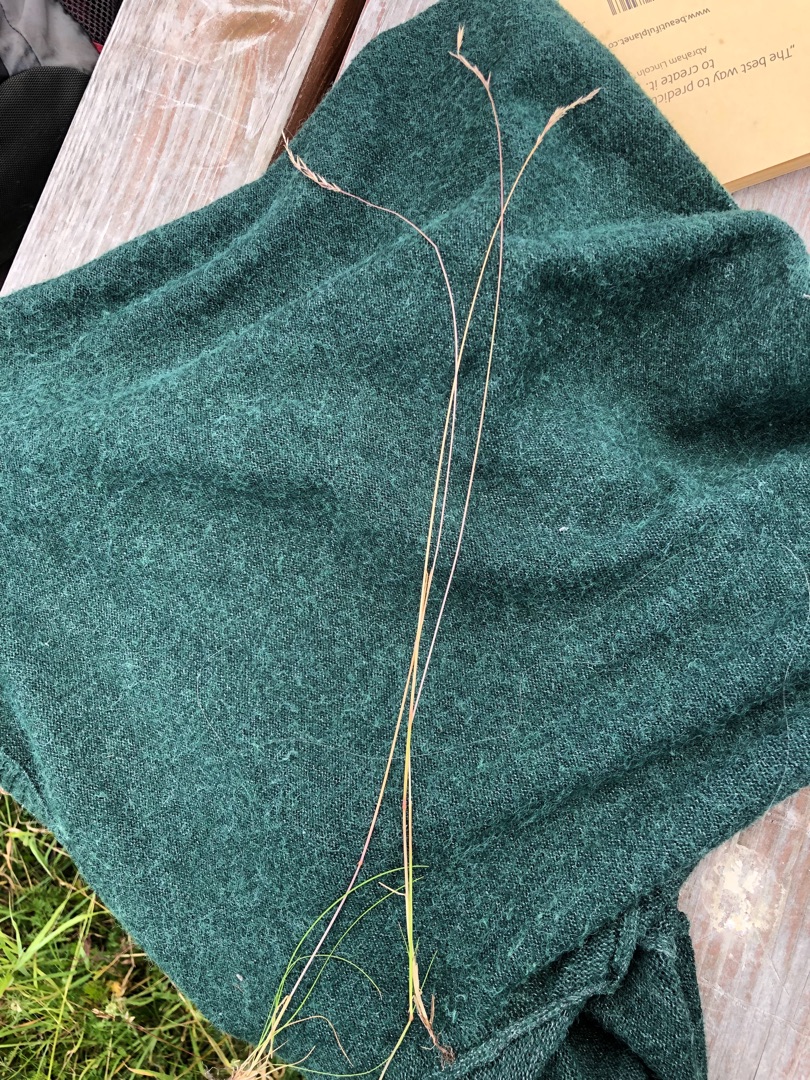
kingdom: Plantae
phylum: Tracheophyta
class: Liliopsida
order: Poales
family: Poaceae
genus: Festuca
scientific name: Festuca rubra
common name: Rød svingel
